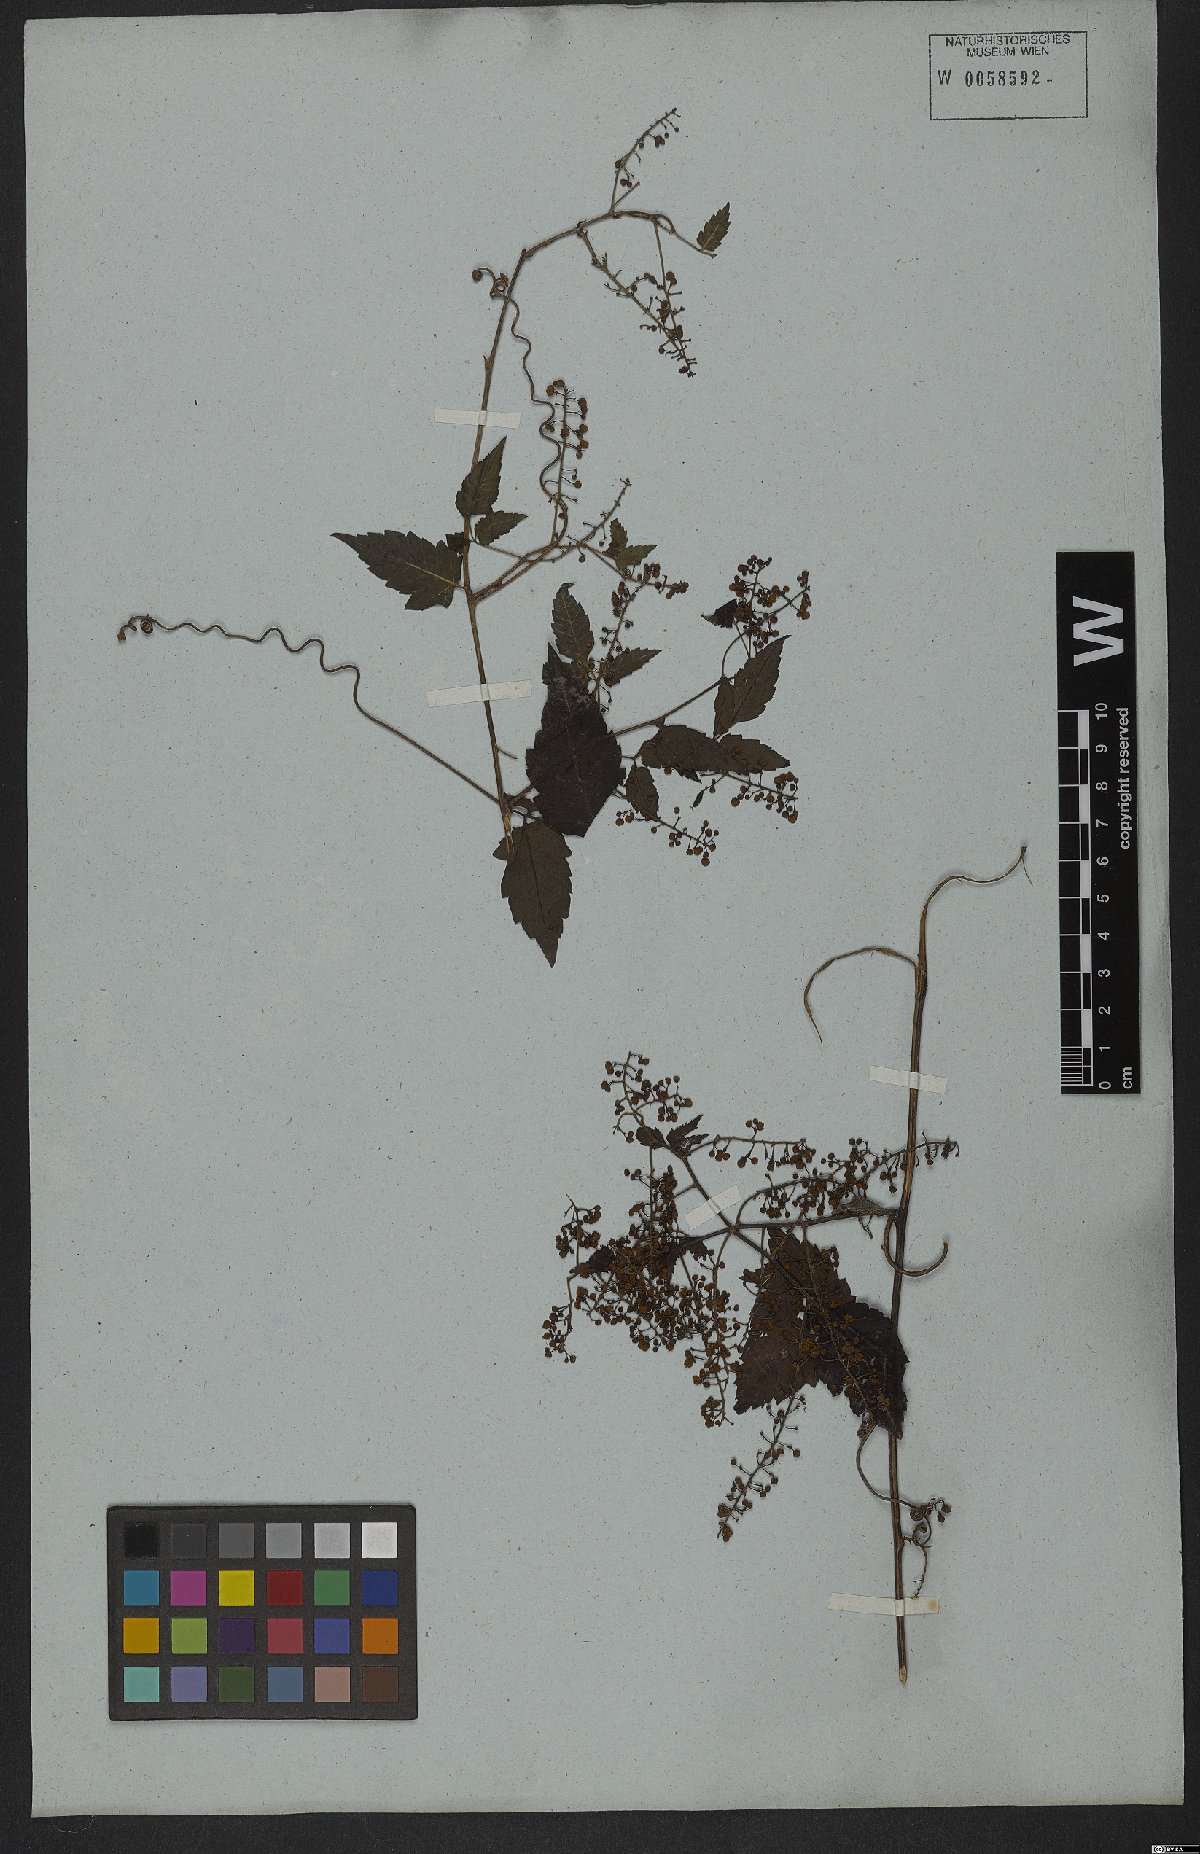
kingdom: Plantae
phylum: Tracheophyta
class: Magnoliopsida
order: Sapindales
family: Sapindaceae
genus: Urvillea
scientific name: Urvillea stipitata
